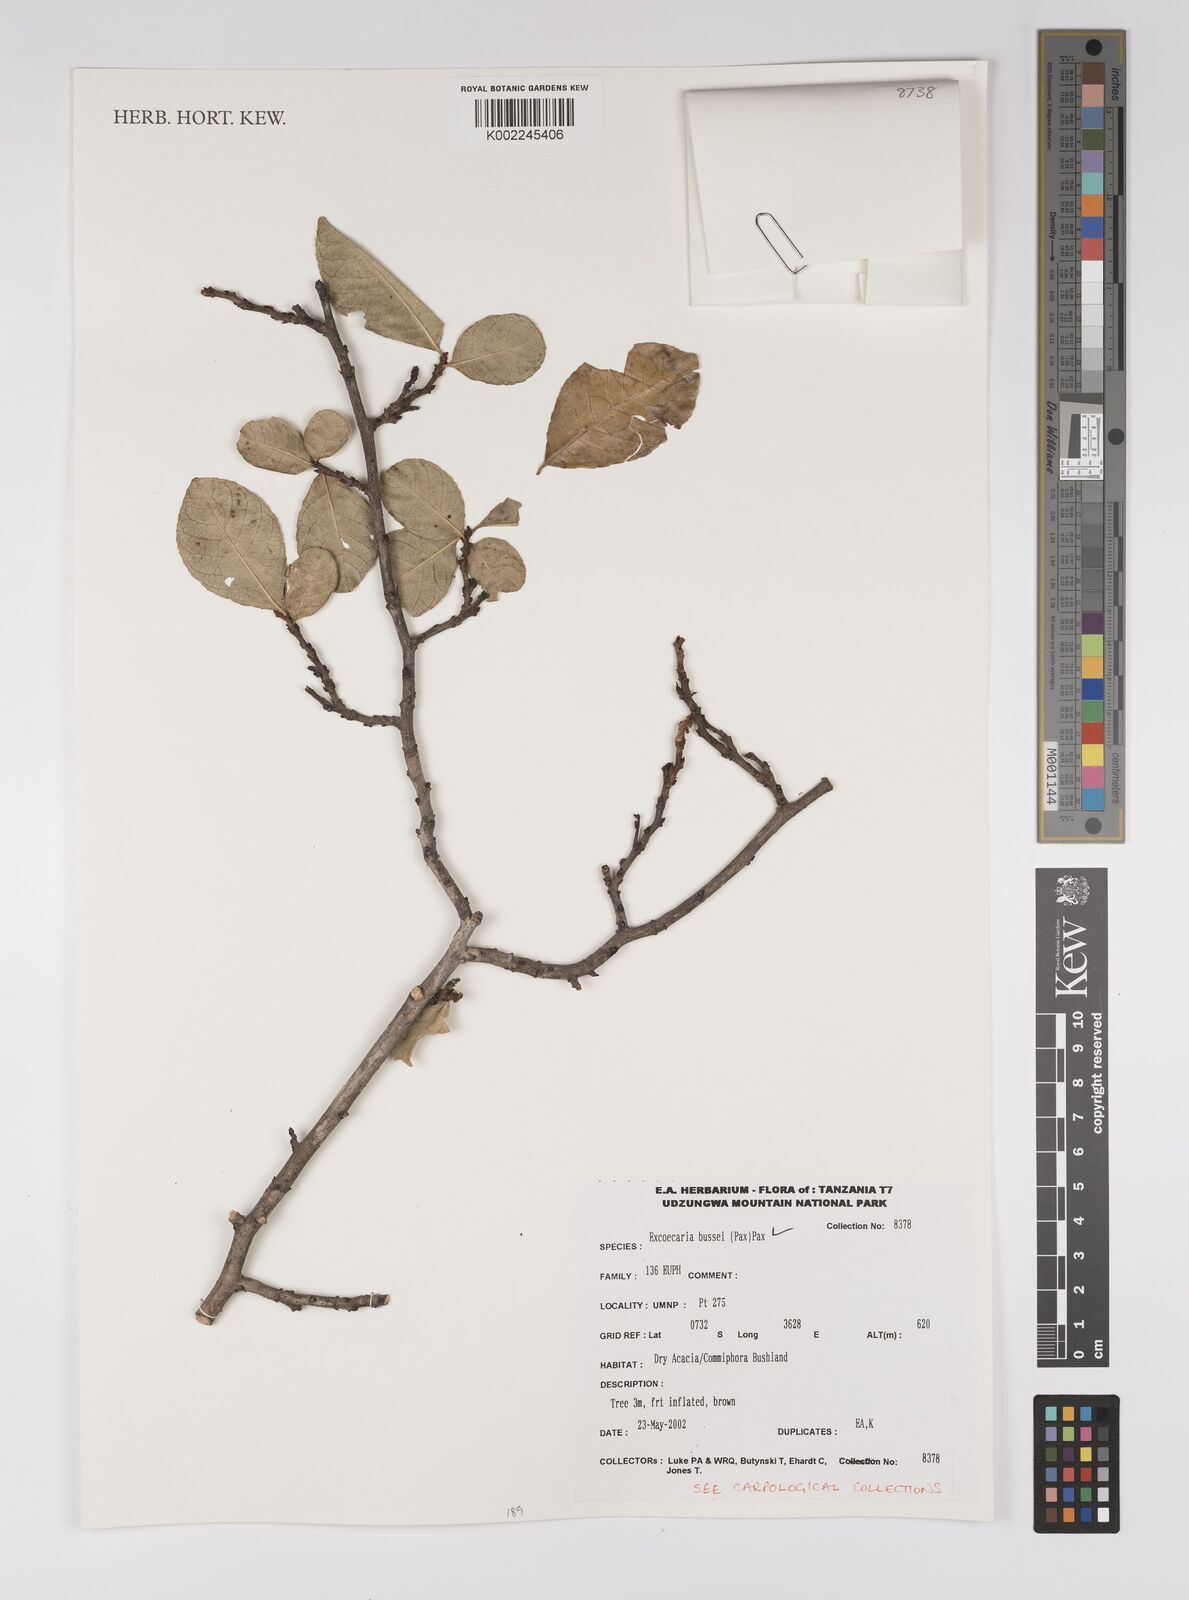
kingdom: Plantae
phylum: Tracheophyta
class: Magnoliopsida
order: Malpighiales
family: Euphorbiaceae
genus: Excoecaria
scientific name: Excoecaria bussei
